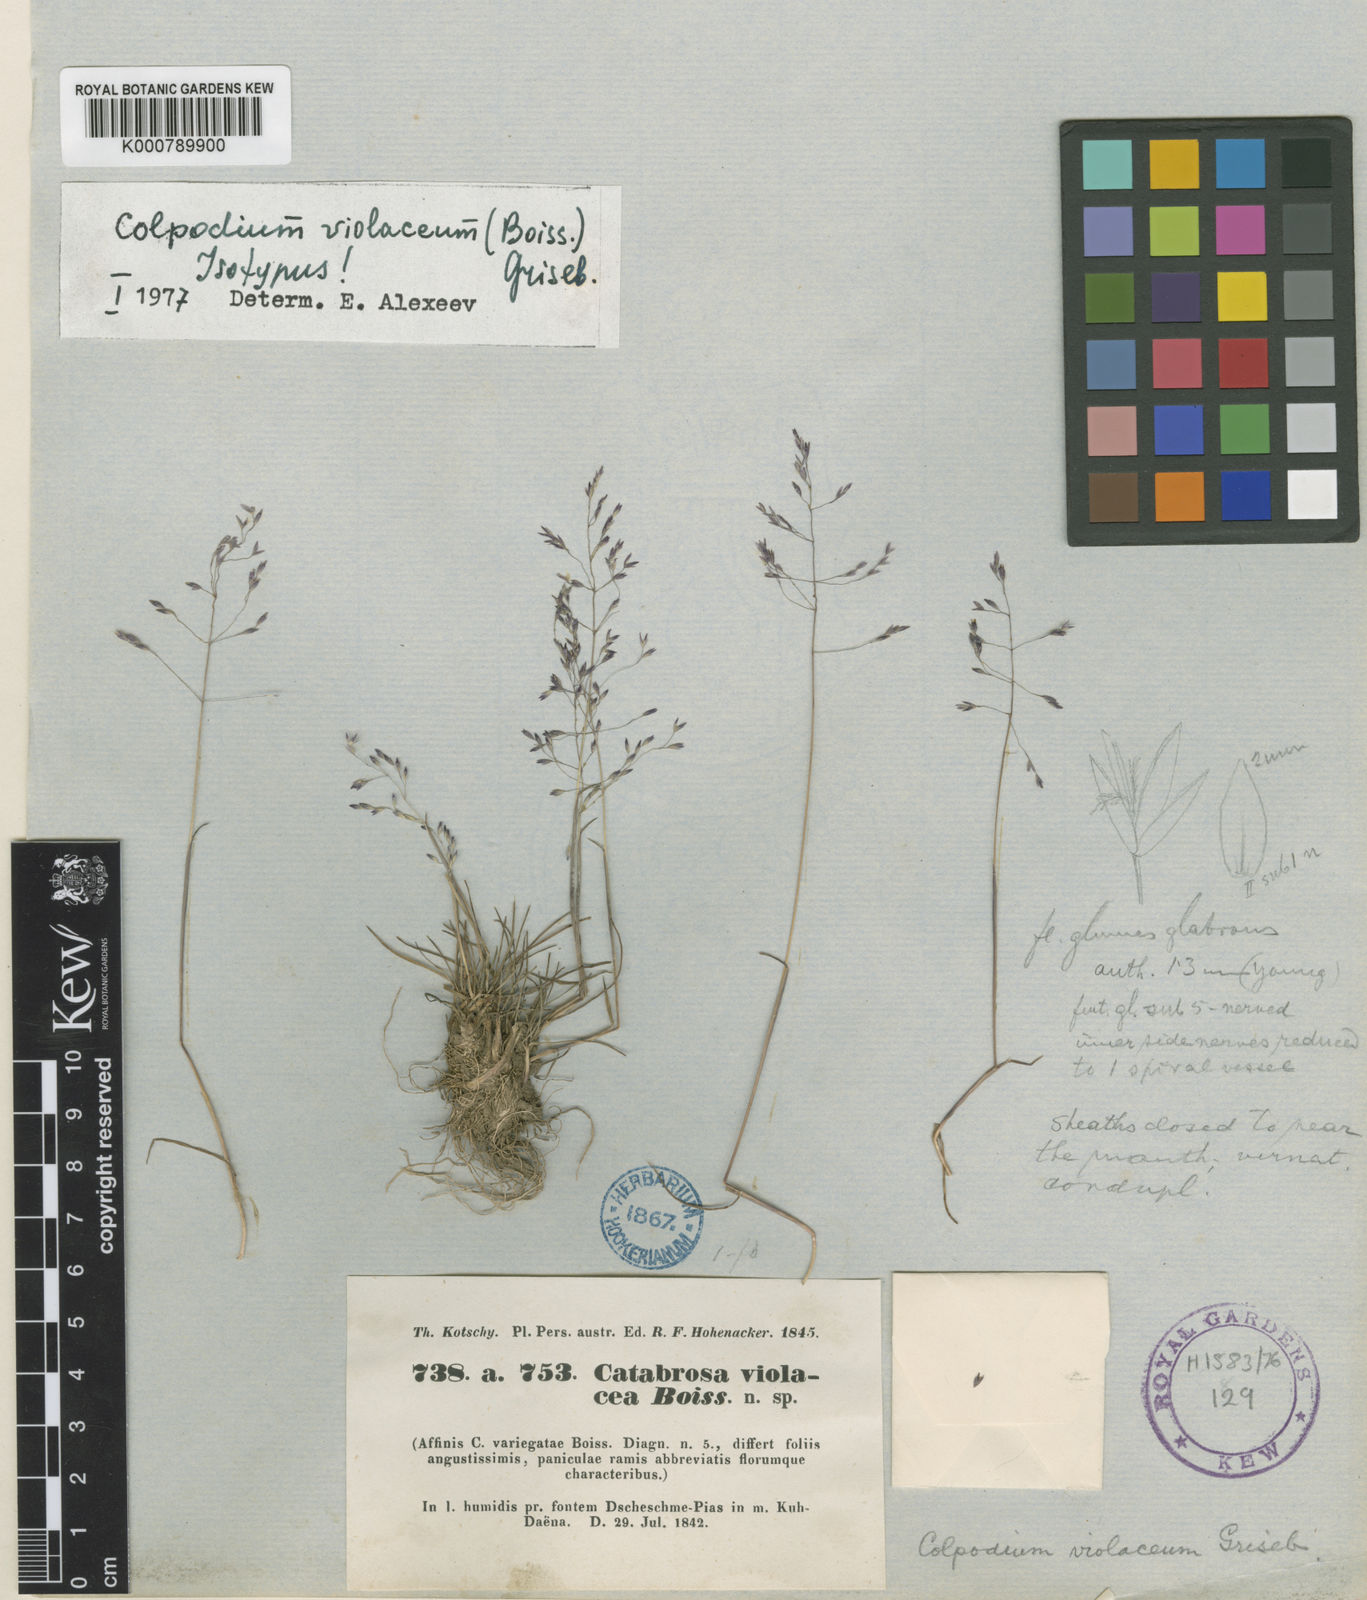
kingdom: Plantae
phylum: Tracheophyta
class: Liliopsida
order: Poales
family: Poaceae
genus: Catabrosella
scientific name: Catabrosella violacea
